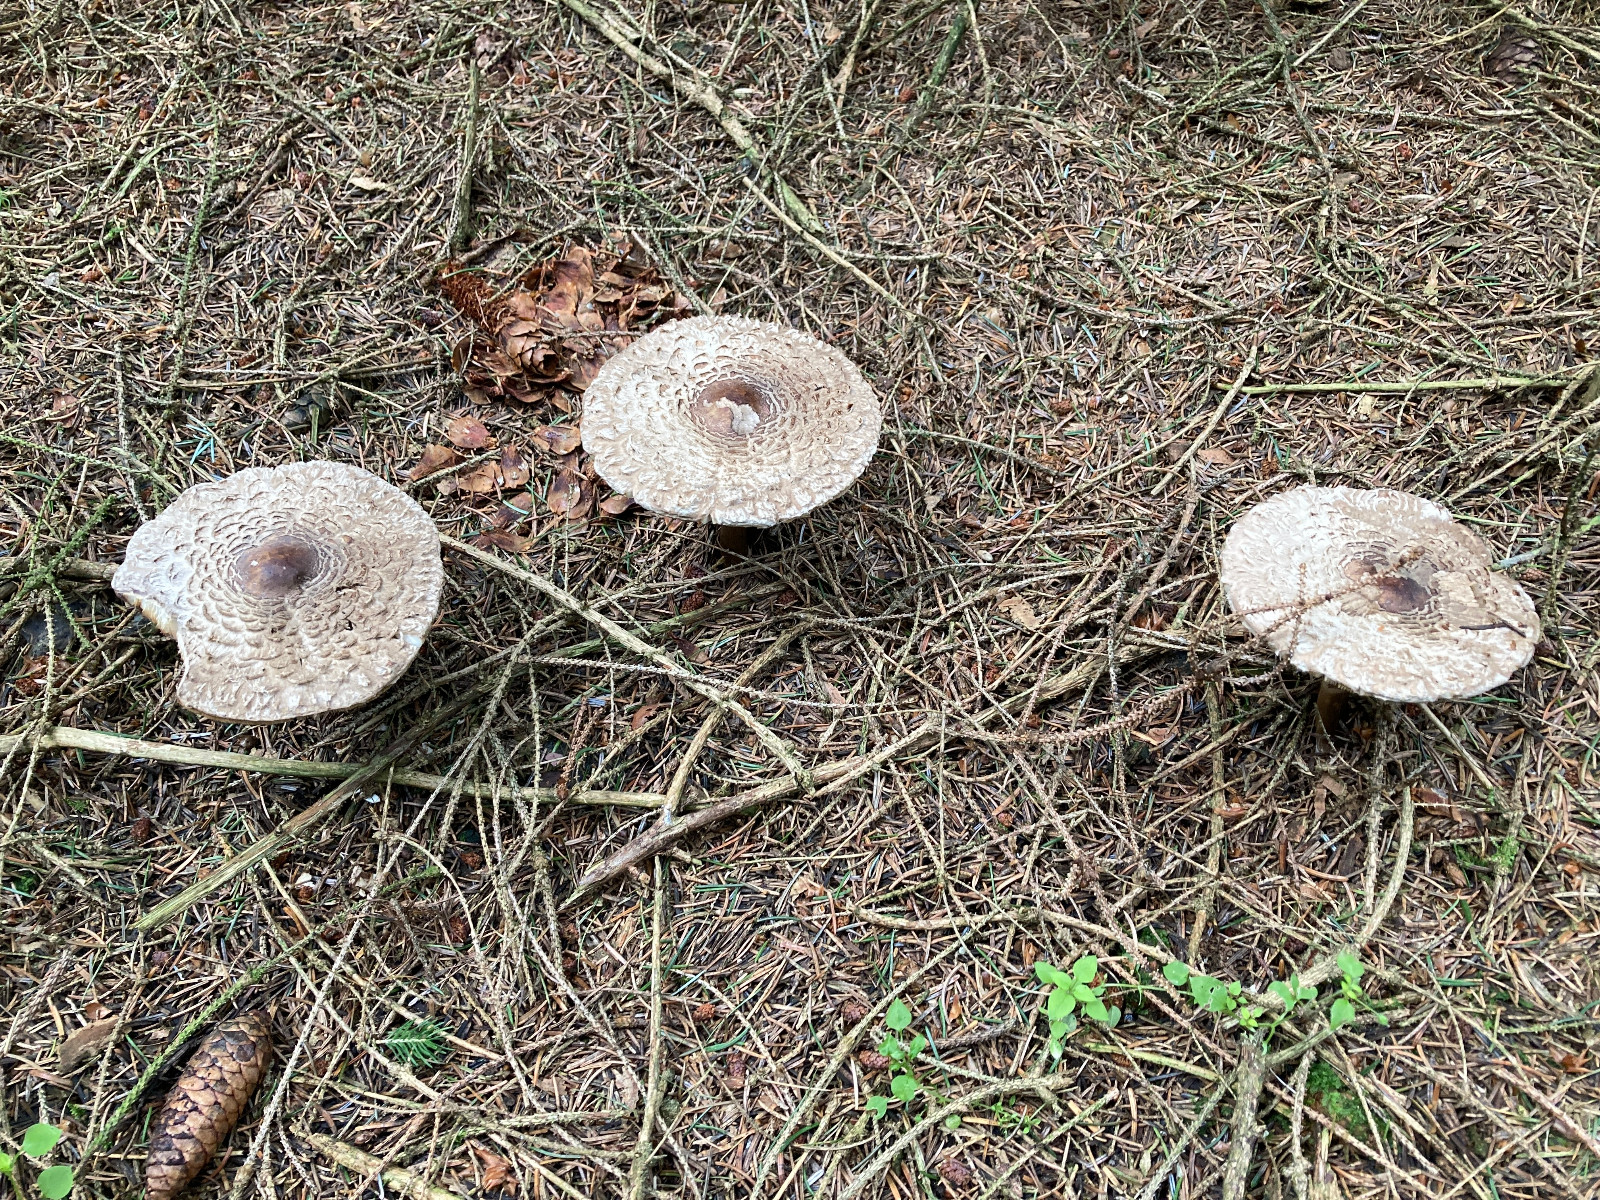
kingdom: Fungi
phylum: Basidiomycota
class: Agaricomycetes
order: Agaricales
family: Agaricaceae
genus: Chlorophyllum
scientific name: Chlorophyllum olivieri
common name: almindelig rabarberhat
